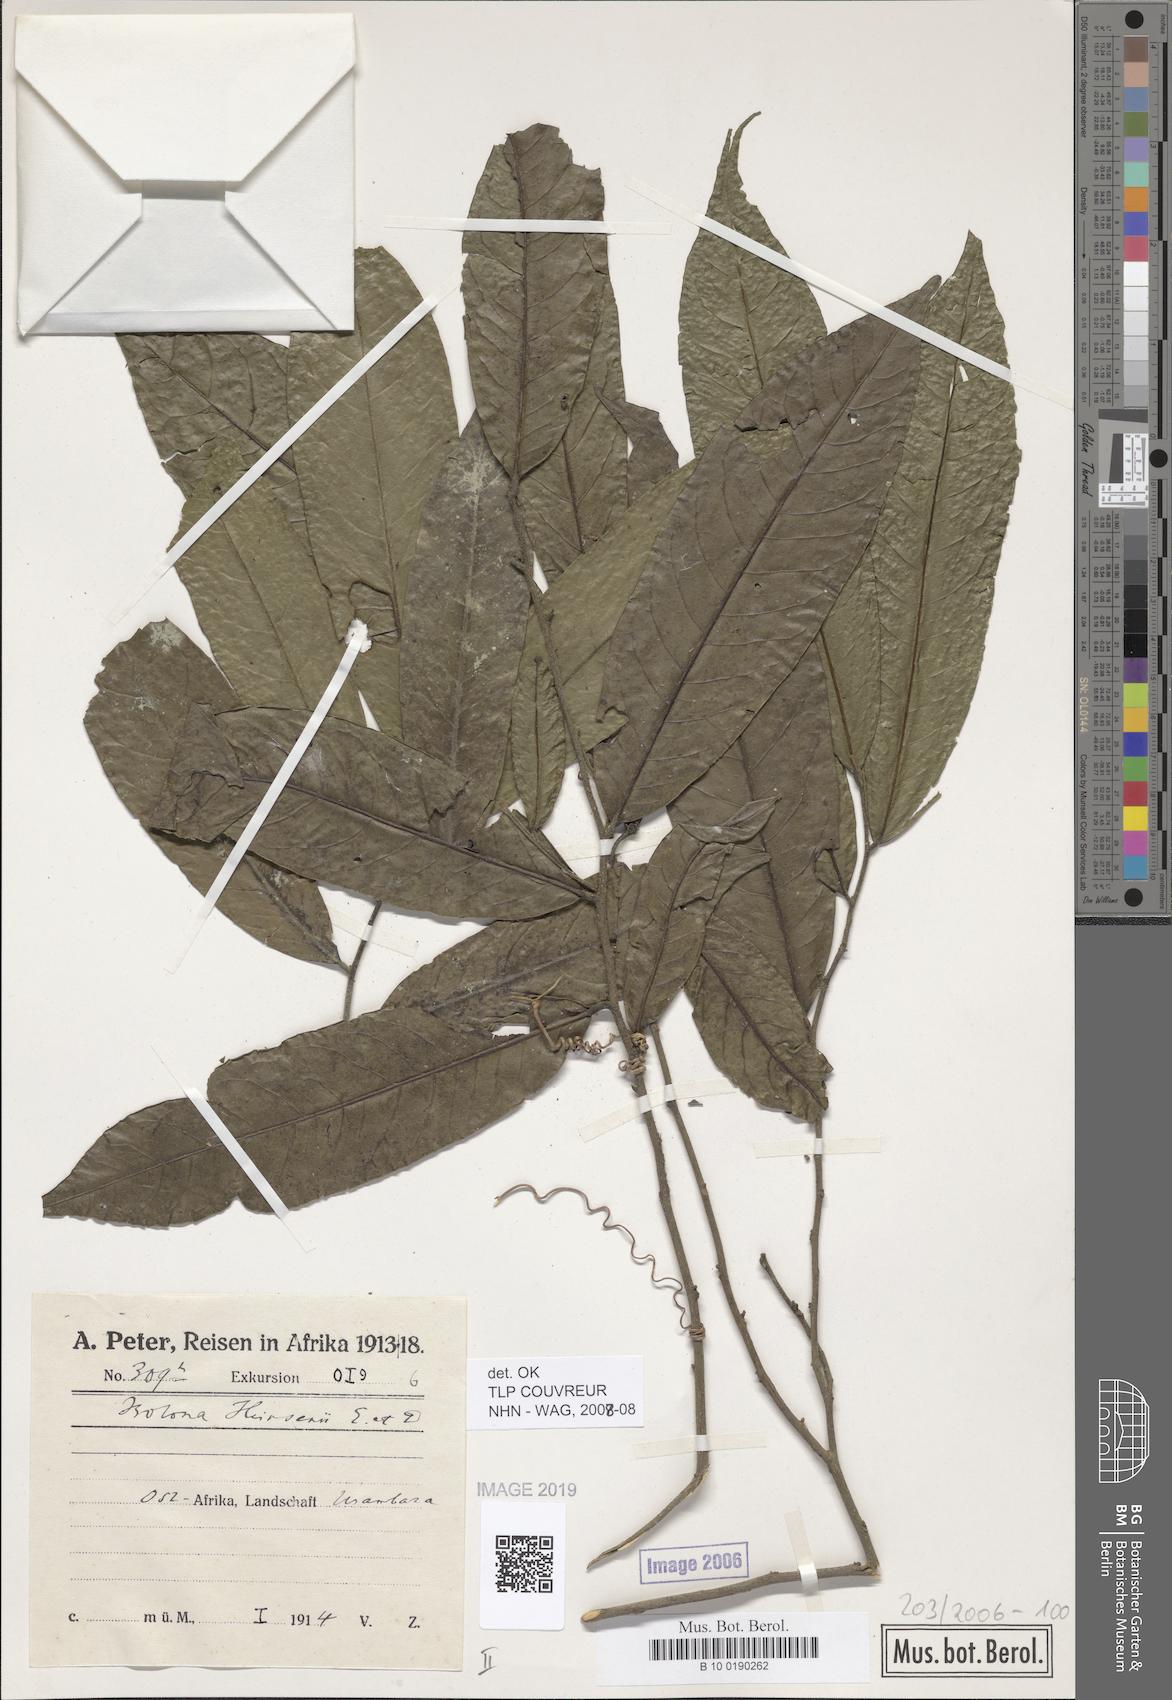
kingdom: Plantae
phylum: Tracheophyta
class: Magnoliopsida
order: Magnoliales
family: Annonaceae
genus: Isolona
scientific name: Isolona heinsenii
